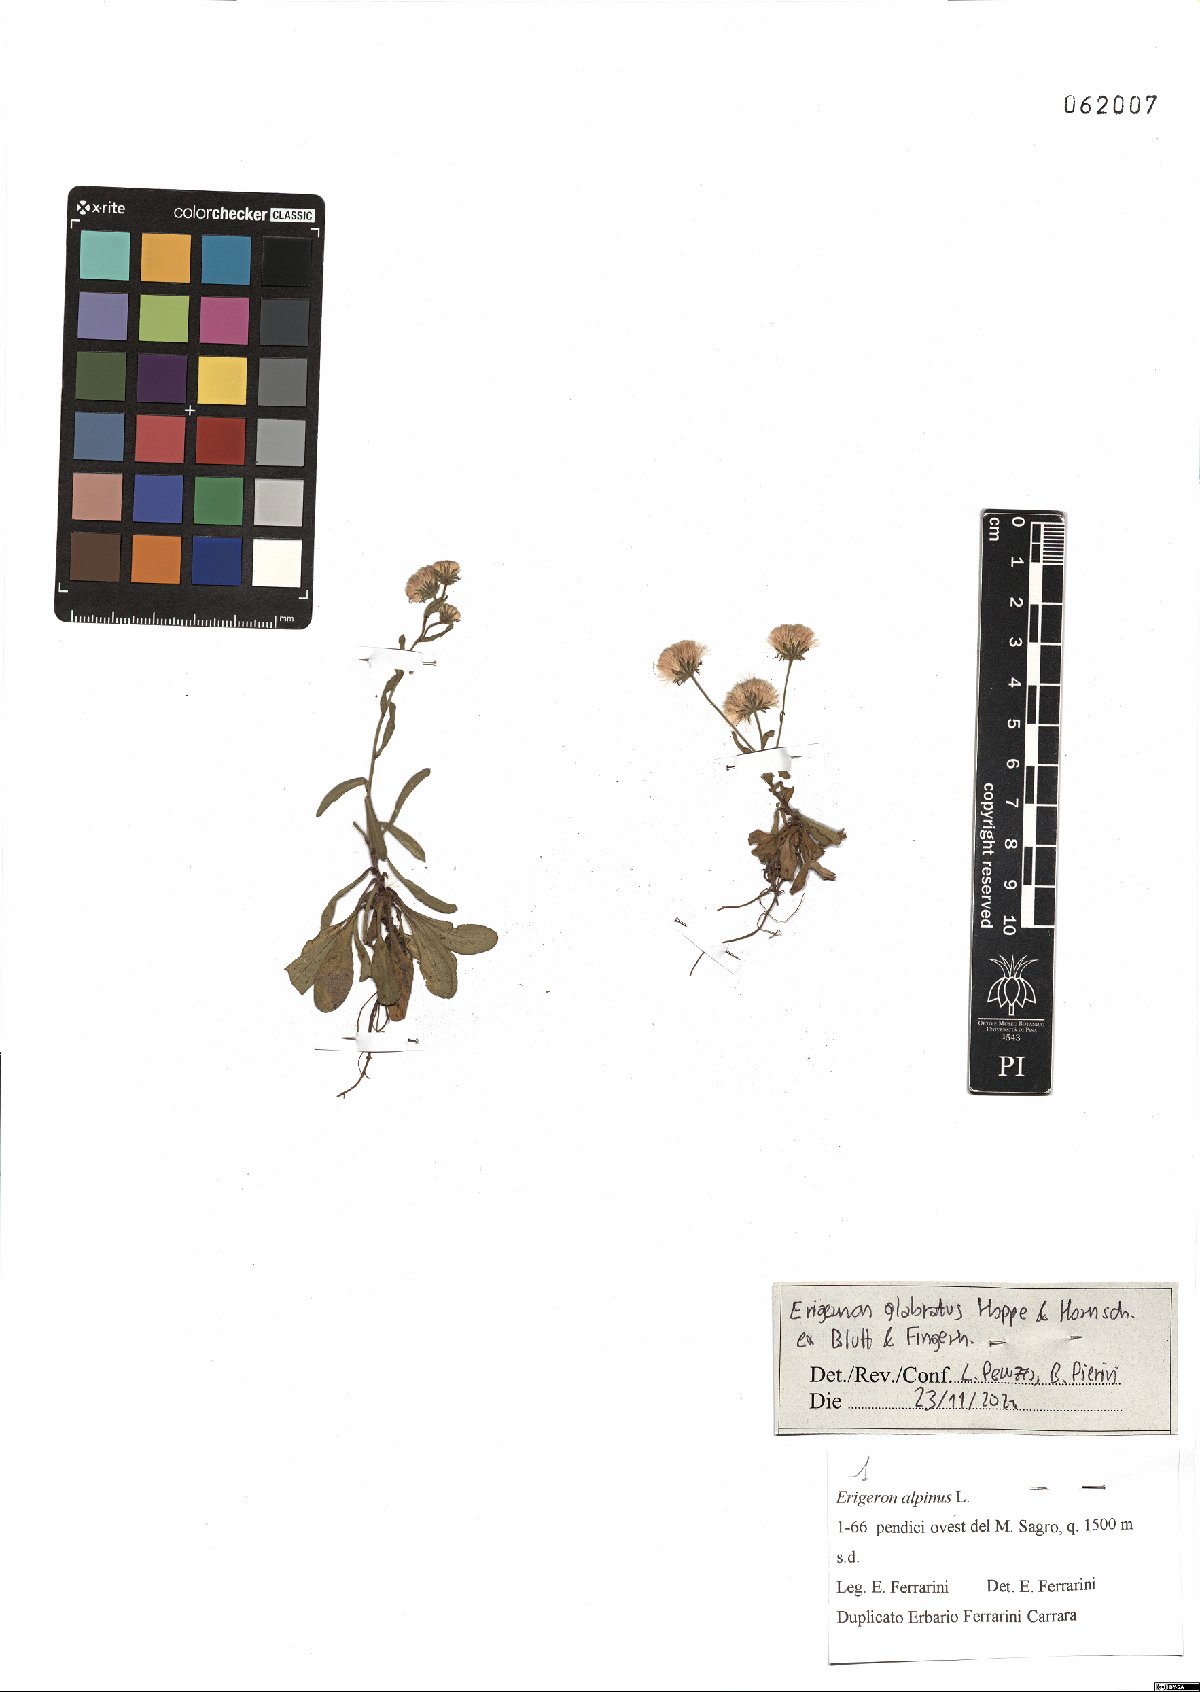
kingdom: Plantae
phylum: Tracheophyta
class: Magnoliopsida
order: Asterales
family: Asteraceae
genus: Erigeron
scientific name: Erigeron glabratus
